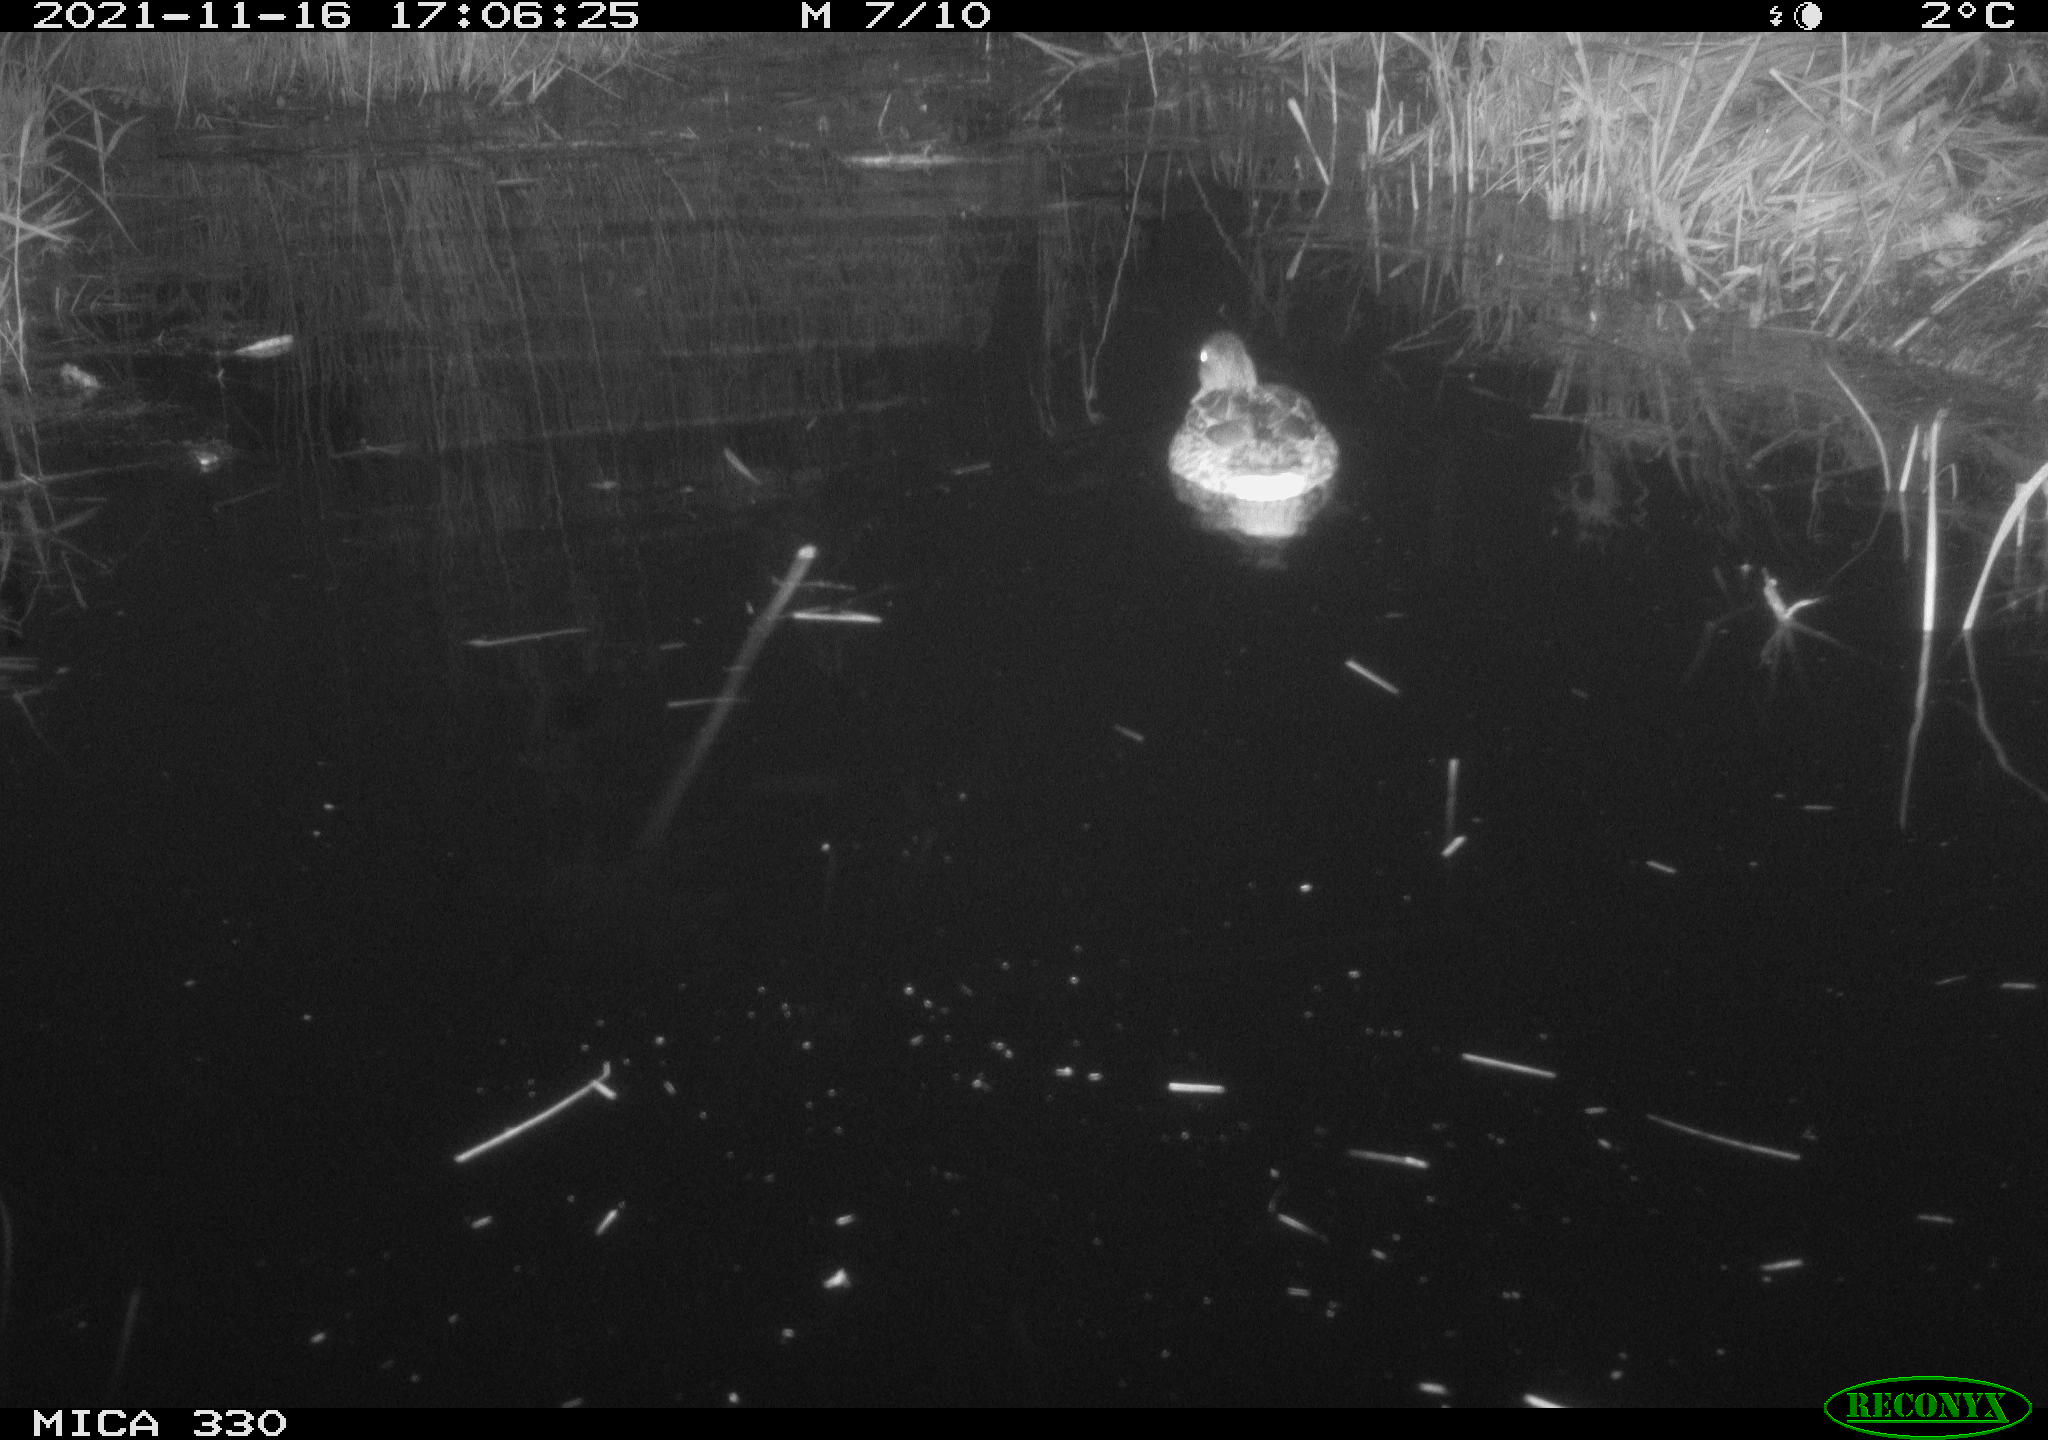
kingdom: Animalia
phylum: Chordata
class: Aves
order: Anseriformes
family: Anatidae
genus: Anas
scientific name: Anas platyrhynchos
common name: Mallard
